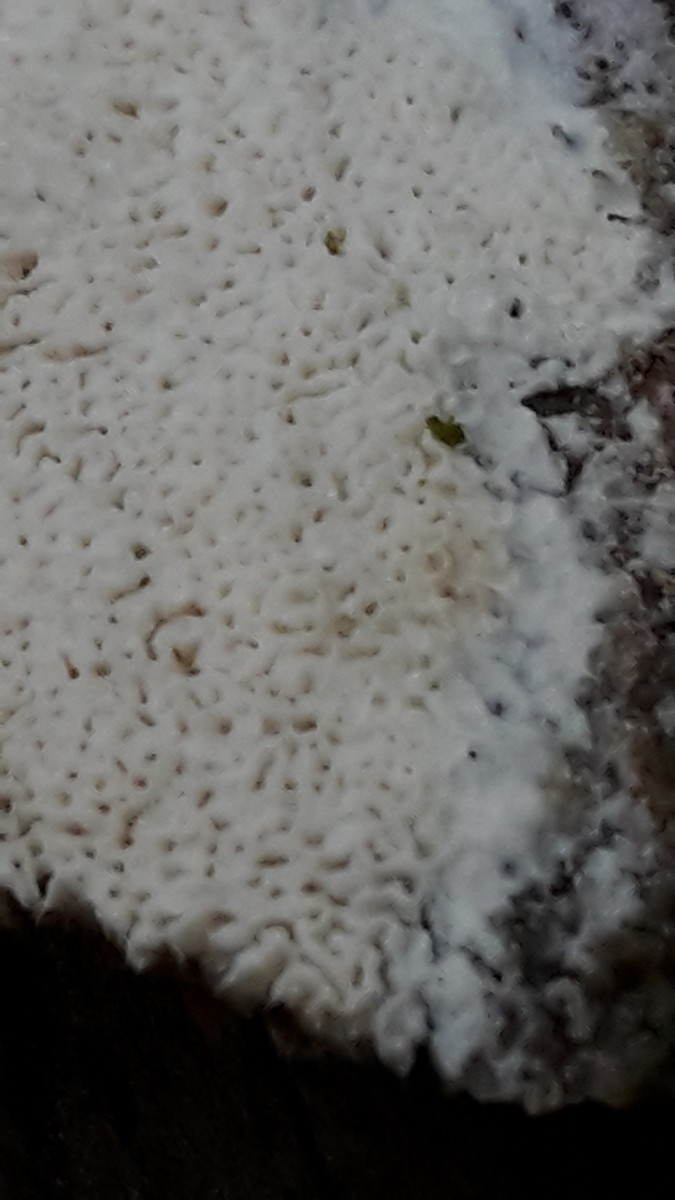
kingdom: Fungi
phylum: Basidiomycota
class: Agaricomycetes
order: Polyporales
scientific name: Polyporales
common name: poresvampordenen
